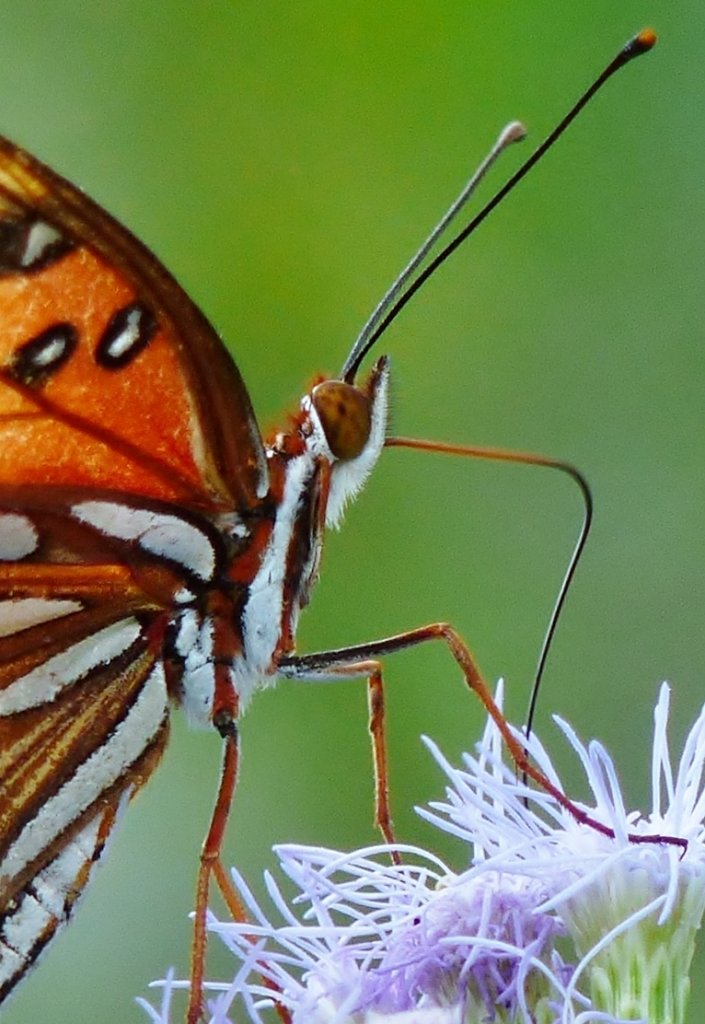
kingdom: Animalia
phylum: Arthropoda
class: Insecta
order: Lepidoptera
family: Nymphalidae
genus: Dione
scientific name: Dione vanillae
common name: Gulf Fritillary
